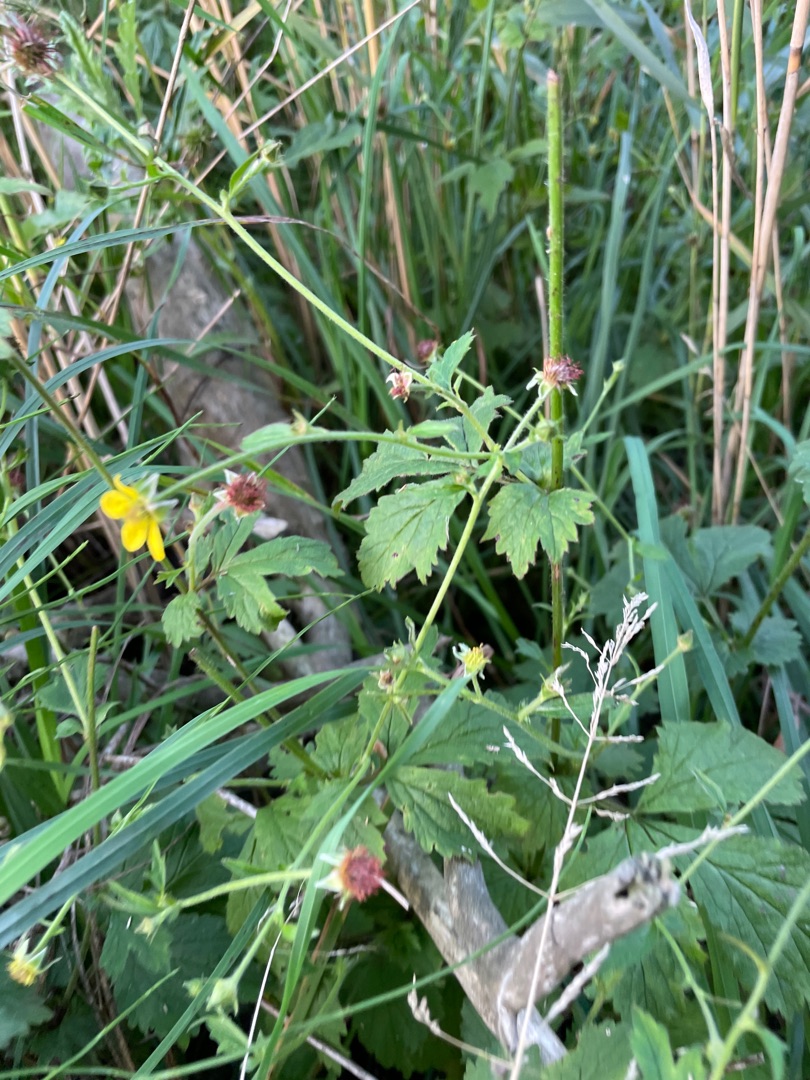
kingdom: Plantae
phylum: Tracheophyta
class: Magnoliopsida
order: Rosales
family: Rosaceae
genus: Geum
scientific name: Geum urbanum
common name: Feber-nellikerod
